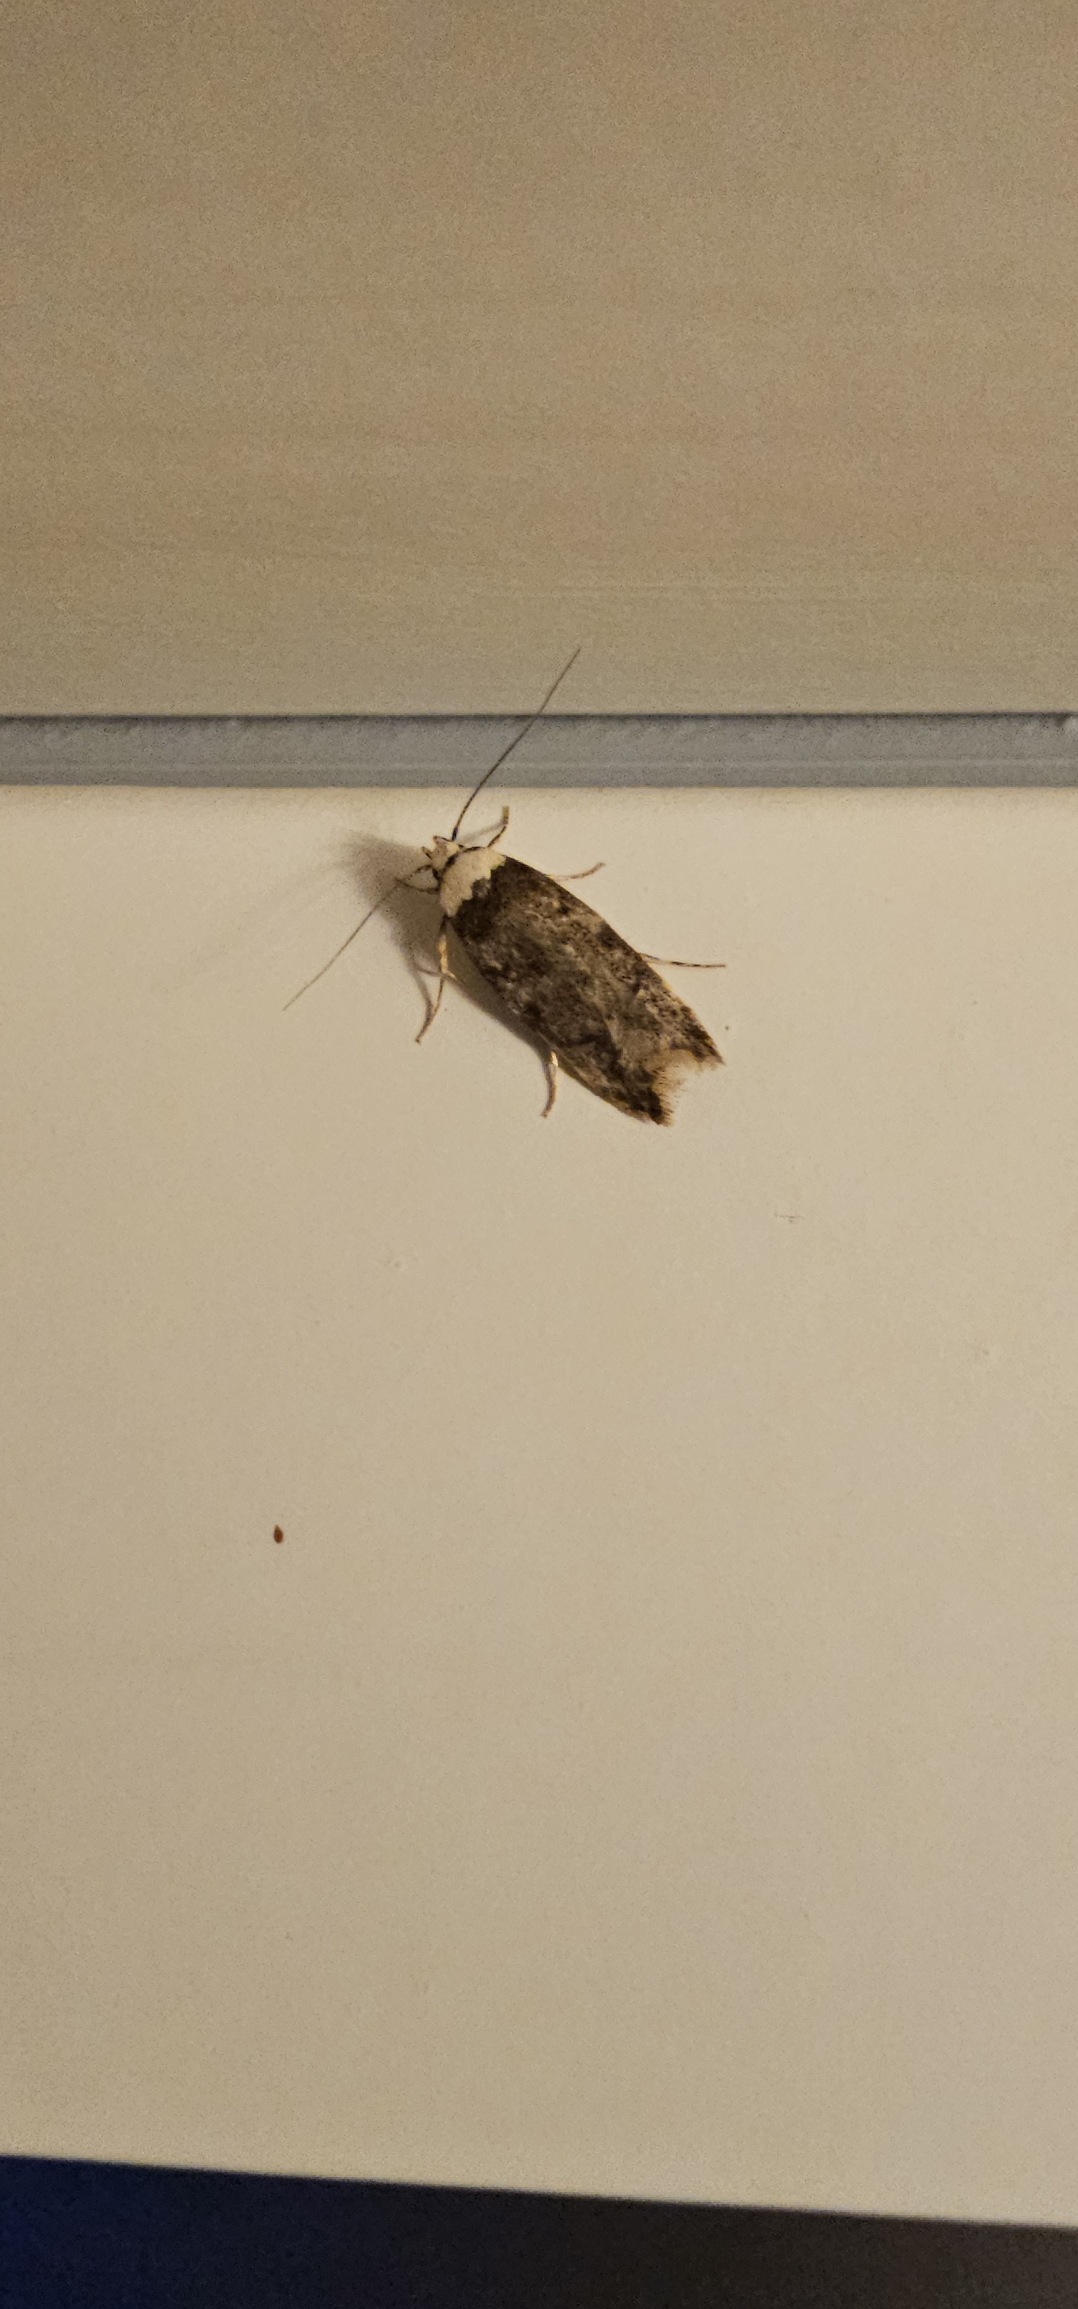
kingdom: Animalia
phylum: Arthropoda
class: Insecta
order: Lepidoptera
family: Oecophoridae
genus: Endrosis
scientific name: Endrosis sarcitrella
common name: Klistermøl
